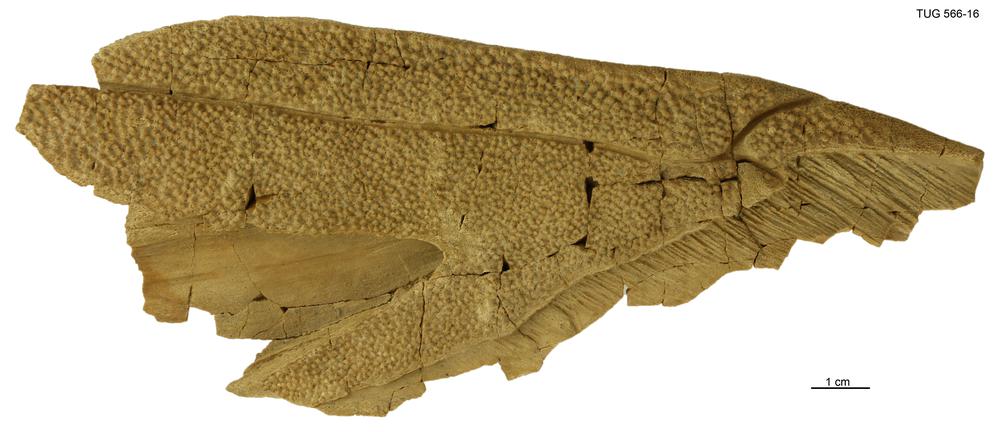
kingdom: Animalia
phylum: Chordata
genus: Homosteus
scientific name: Homosteus sulcatus
